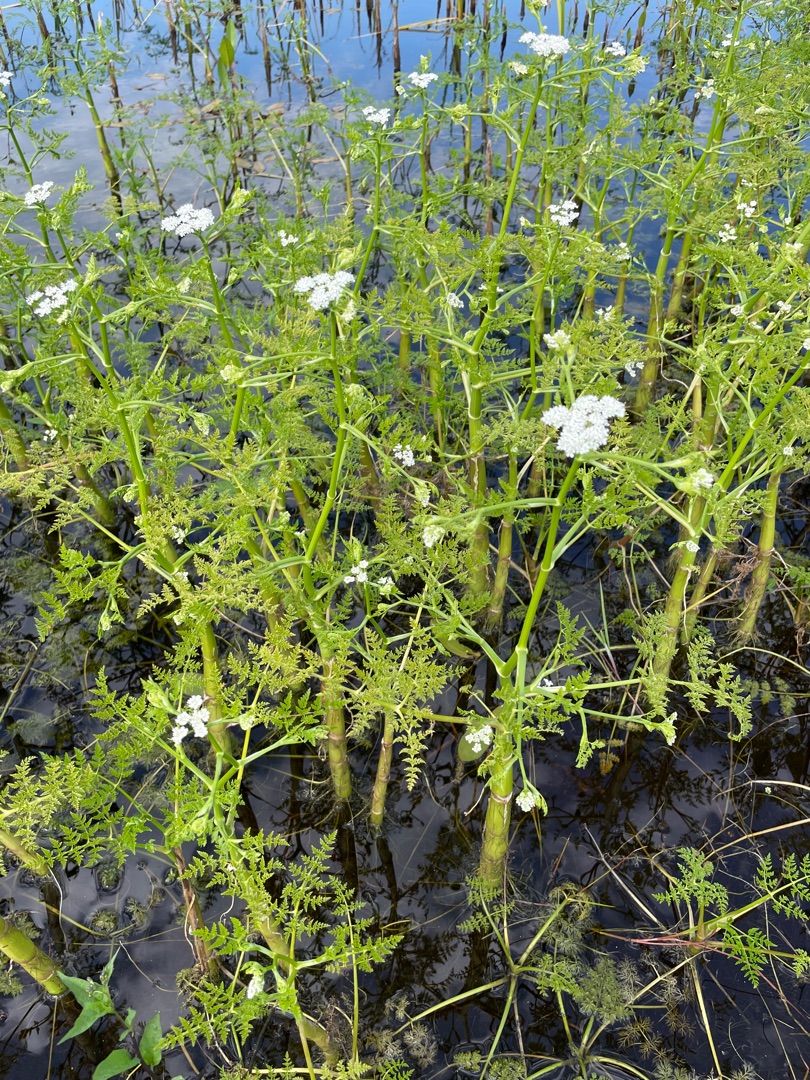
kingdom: Plantae
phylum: Tracheophyta
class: Magnoliopsida
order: Apiales
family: Apiaceae
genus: Oenanthe
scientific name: Oenanthe aquatica
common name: Billebo-klaseskærm
